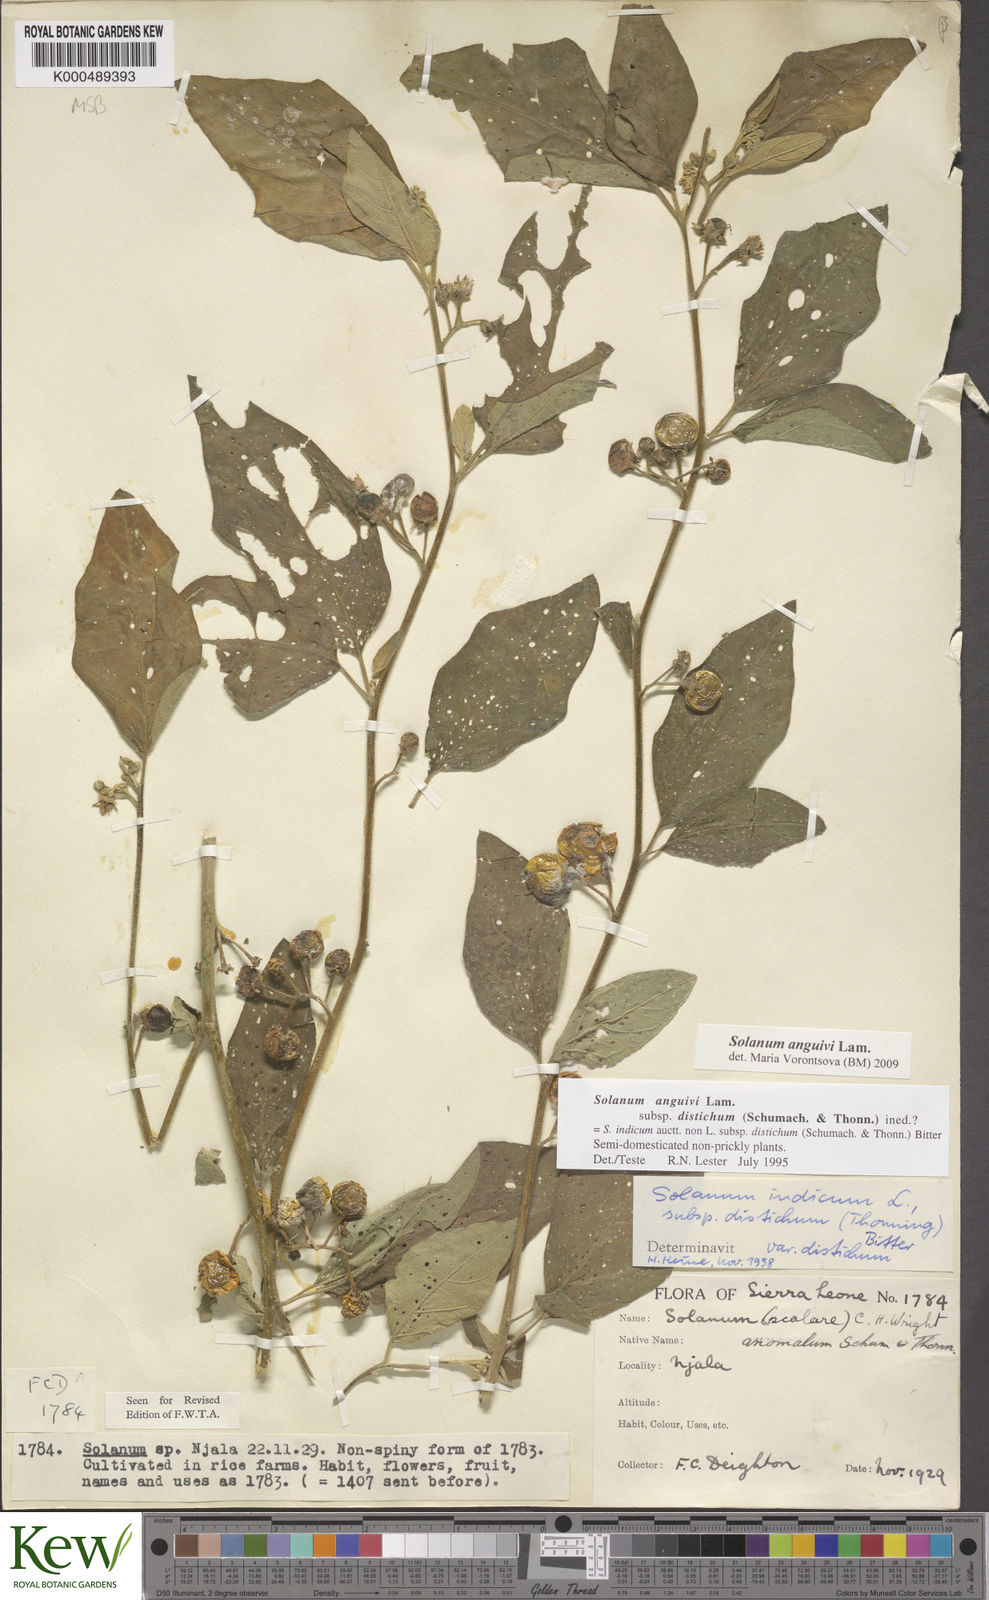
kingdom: Plantae
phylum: Tracheophyta
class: Magnoliopsida
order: Solanales
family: Solanaceae
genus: Solanum
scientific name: Solanum anguivi
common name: Forest bitterberry
